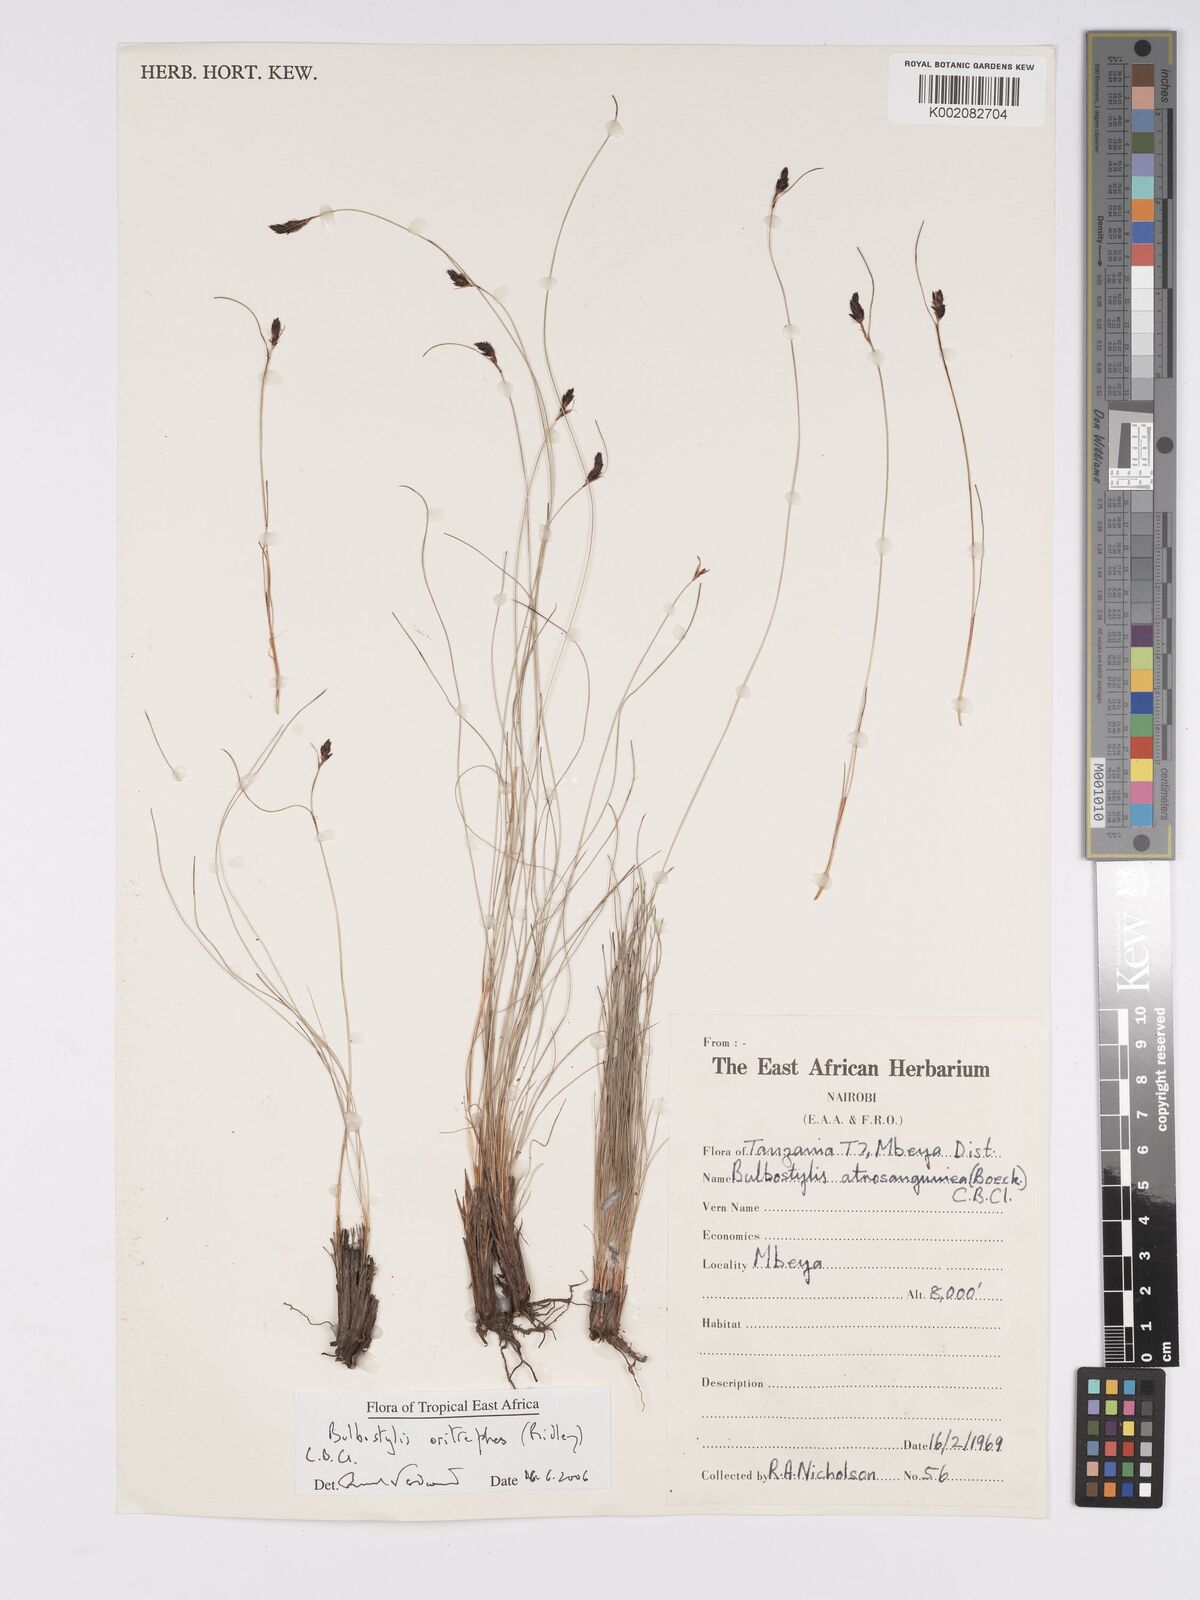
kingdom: Plantae
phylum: Tracheophyta
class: Liliopsida
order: Poales
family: Cyperaceae
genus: Bulbostylis
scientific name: Bulbostylis oritrephes
